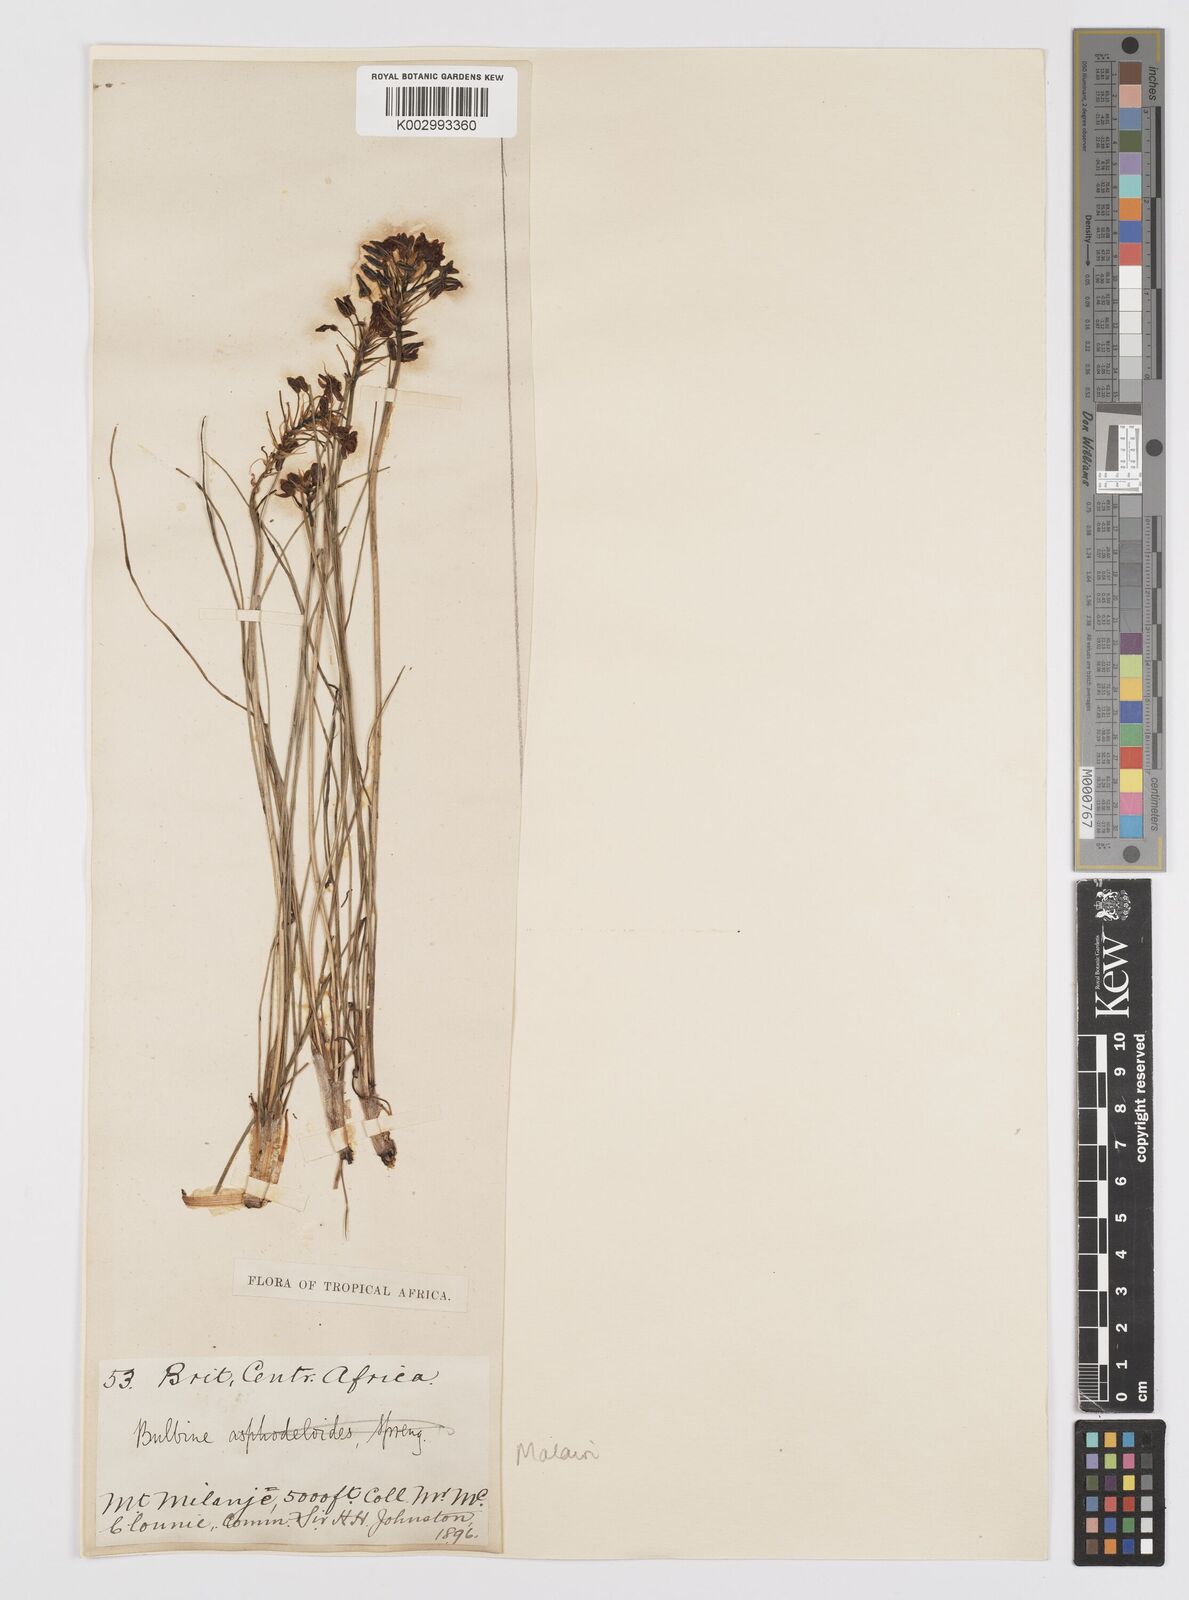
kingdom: Plantae
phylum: Tracheophyta
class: Liliopsida
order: Asparagales
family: Asphodelaceae
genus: Bulbine
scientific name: Bulbine abyssinica
